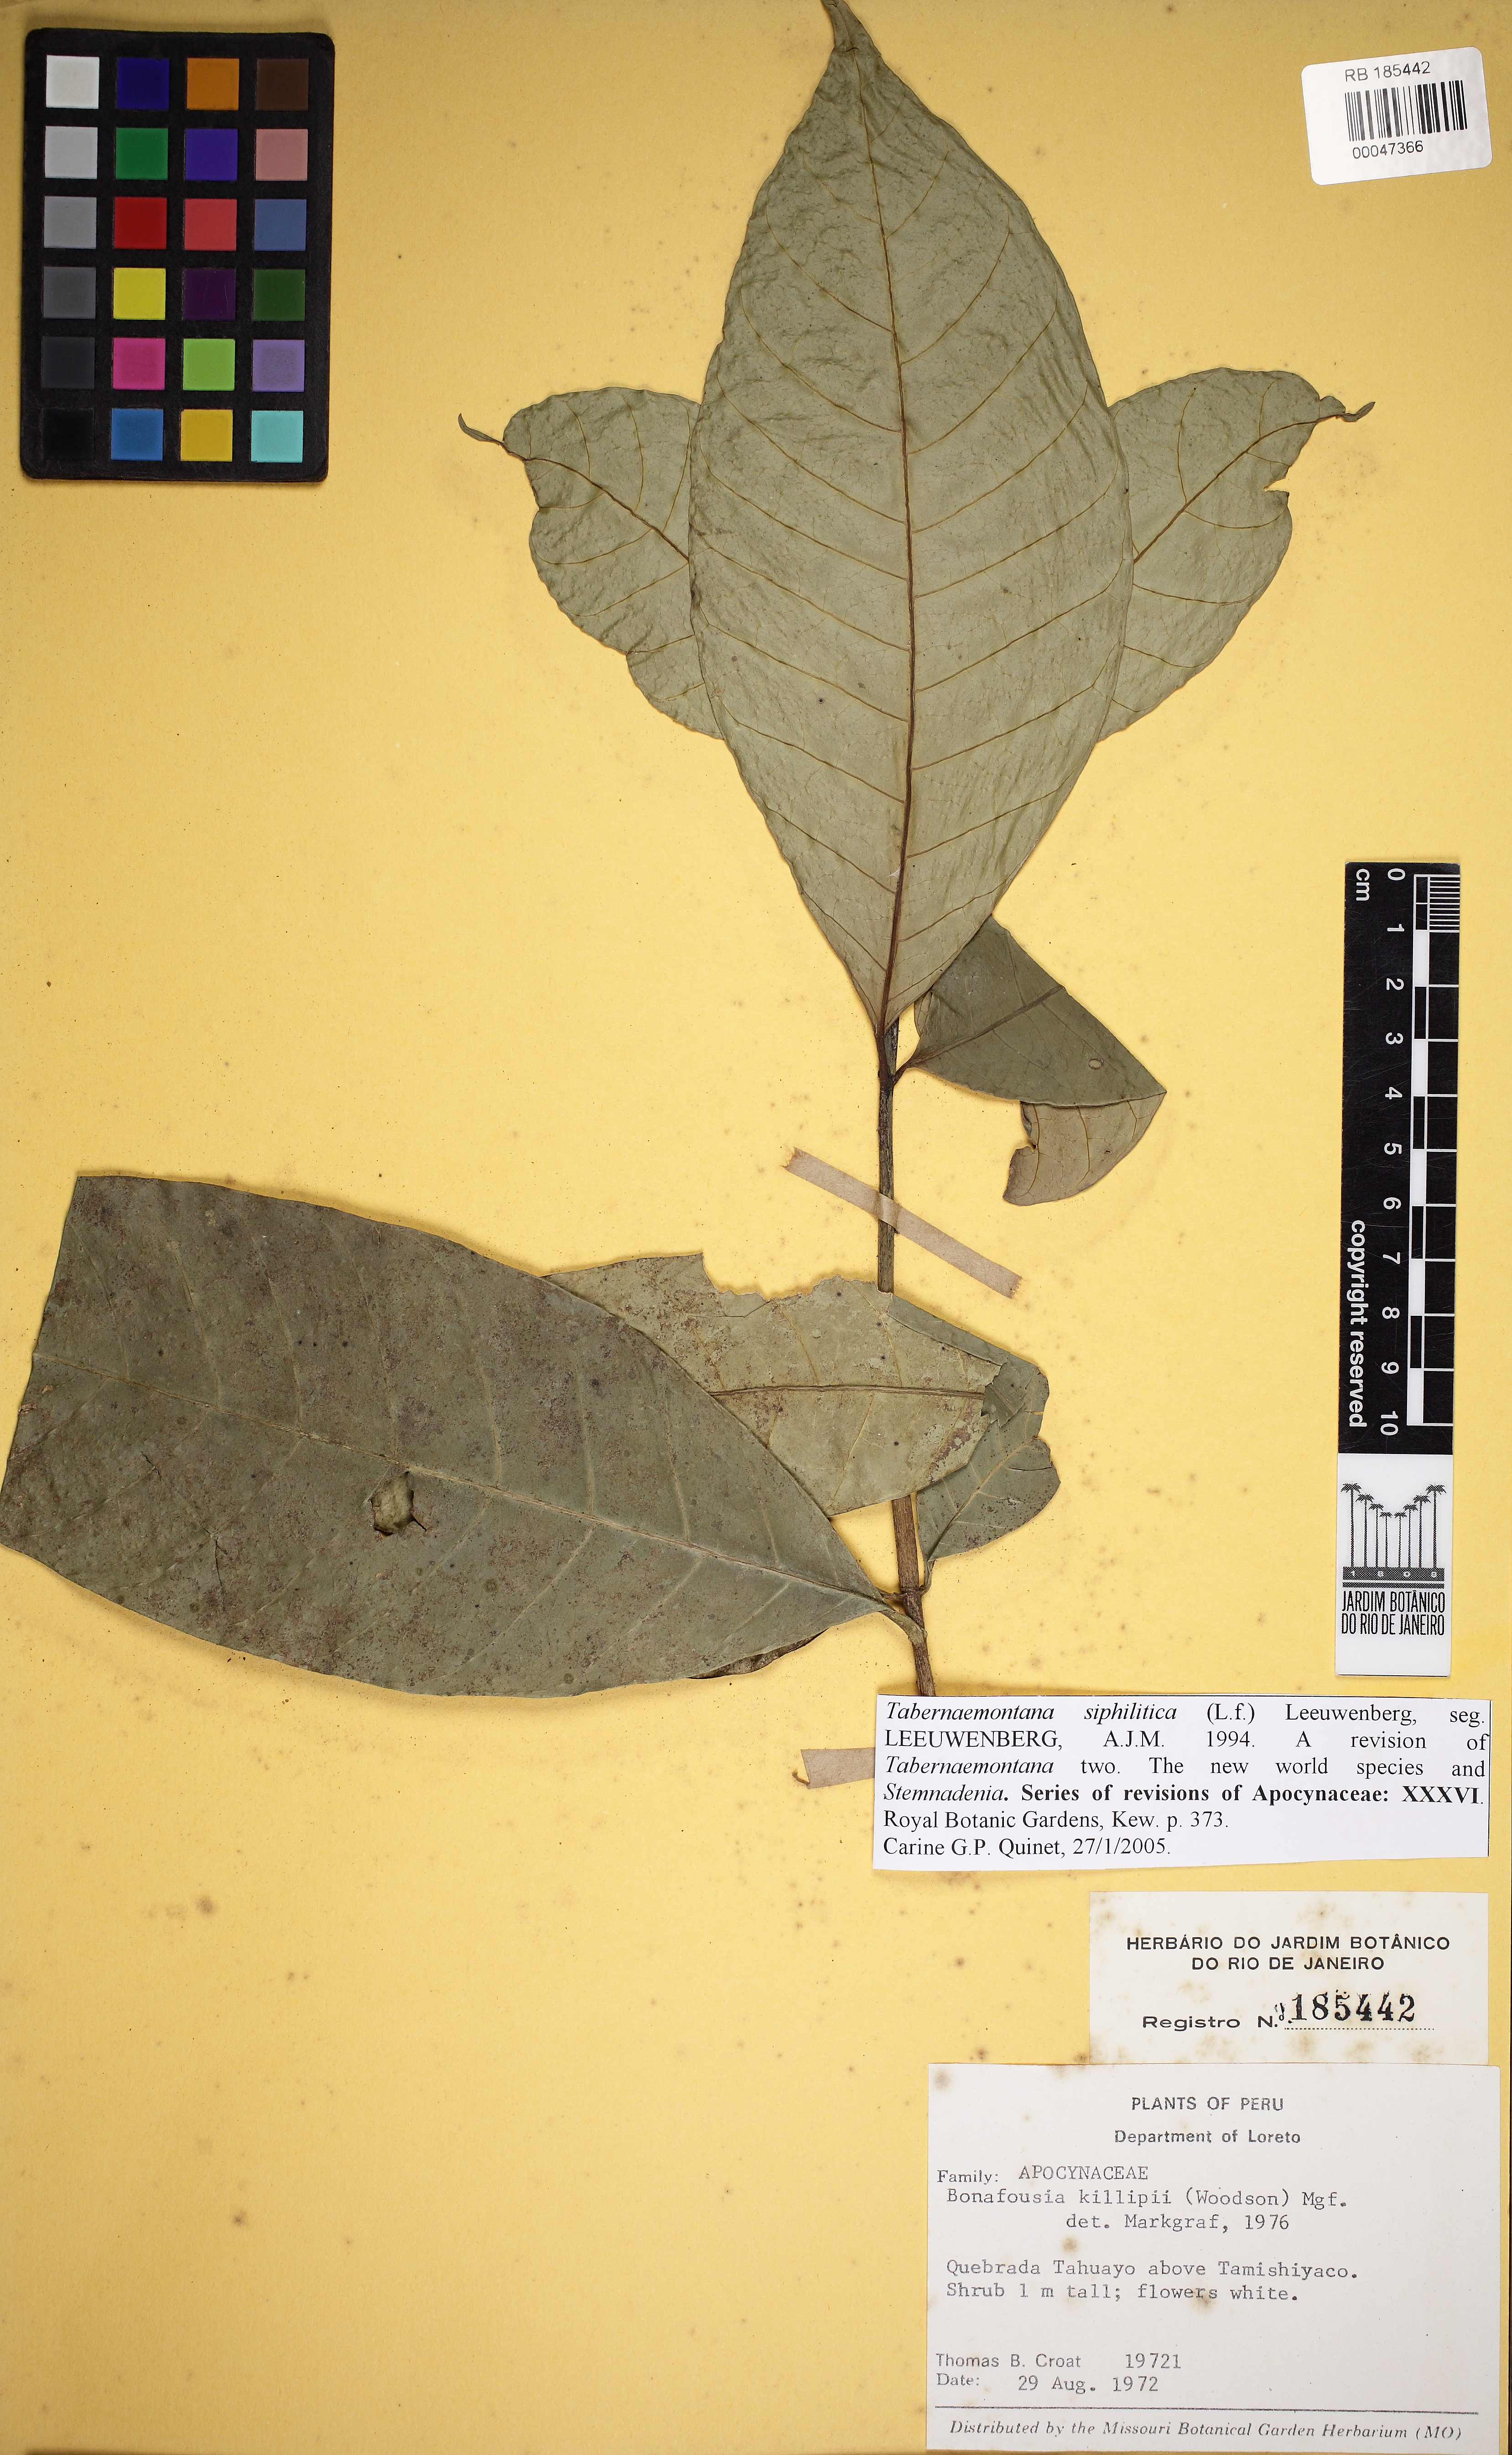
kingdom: Plantae
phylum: Tracheophyta
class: Magnoliopsida
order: Gentianales
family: Apocynaceae
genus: Tabernaemontana
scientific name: Tabernaemontana siphilitica
